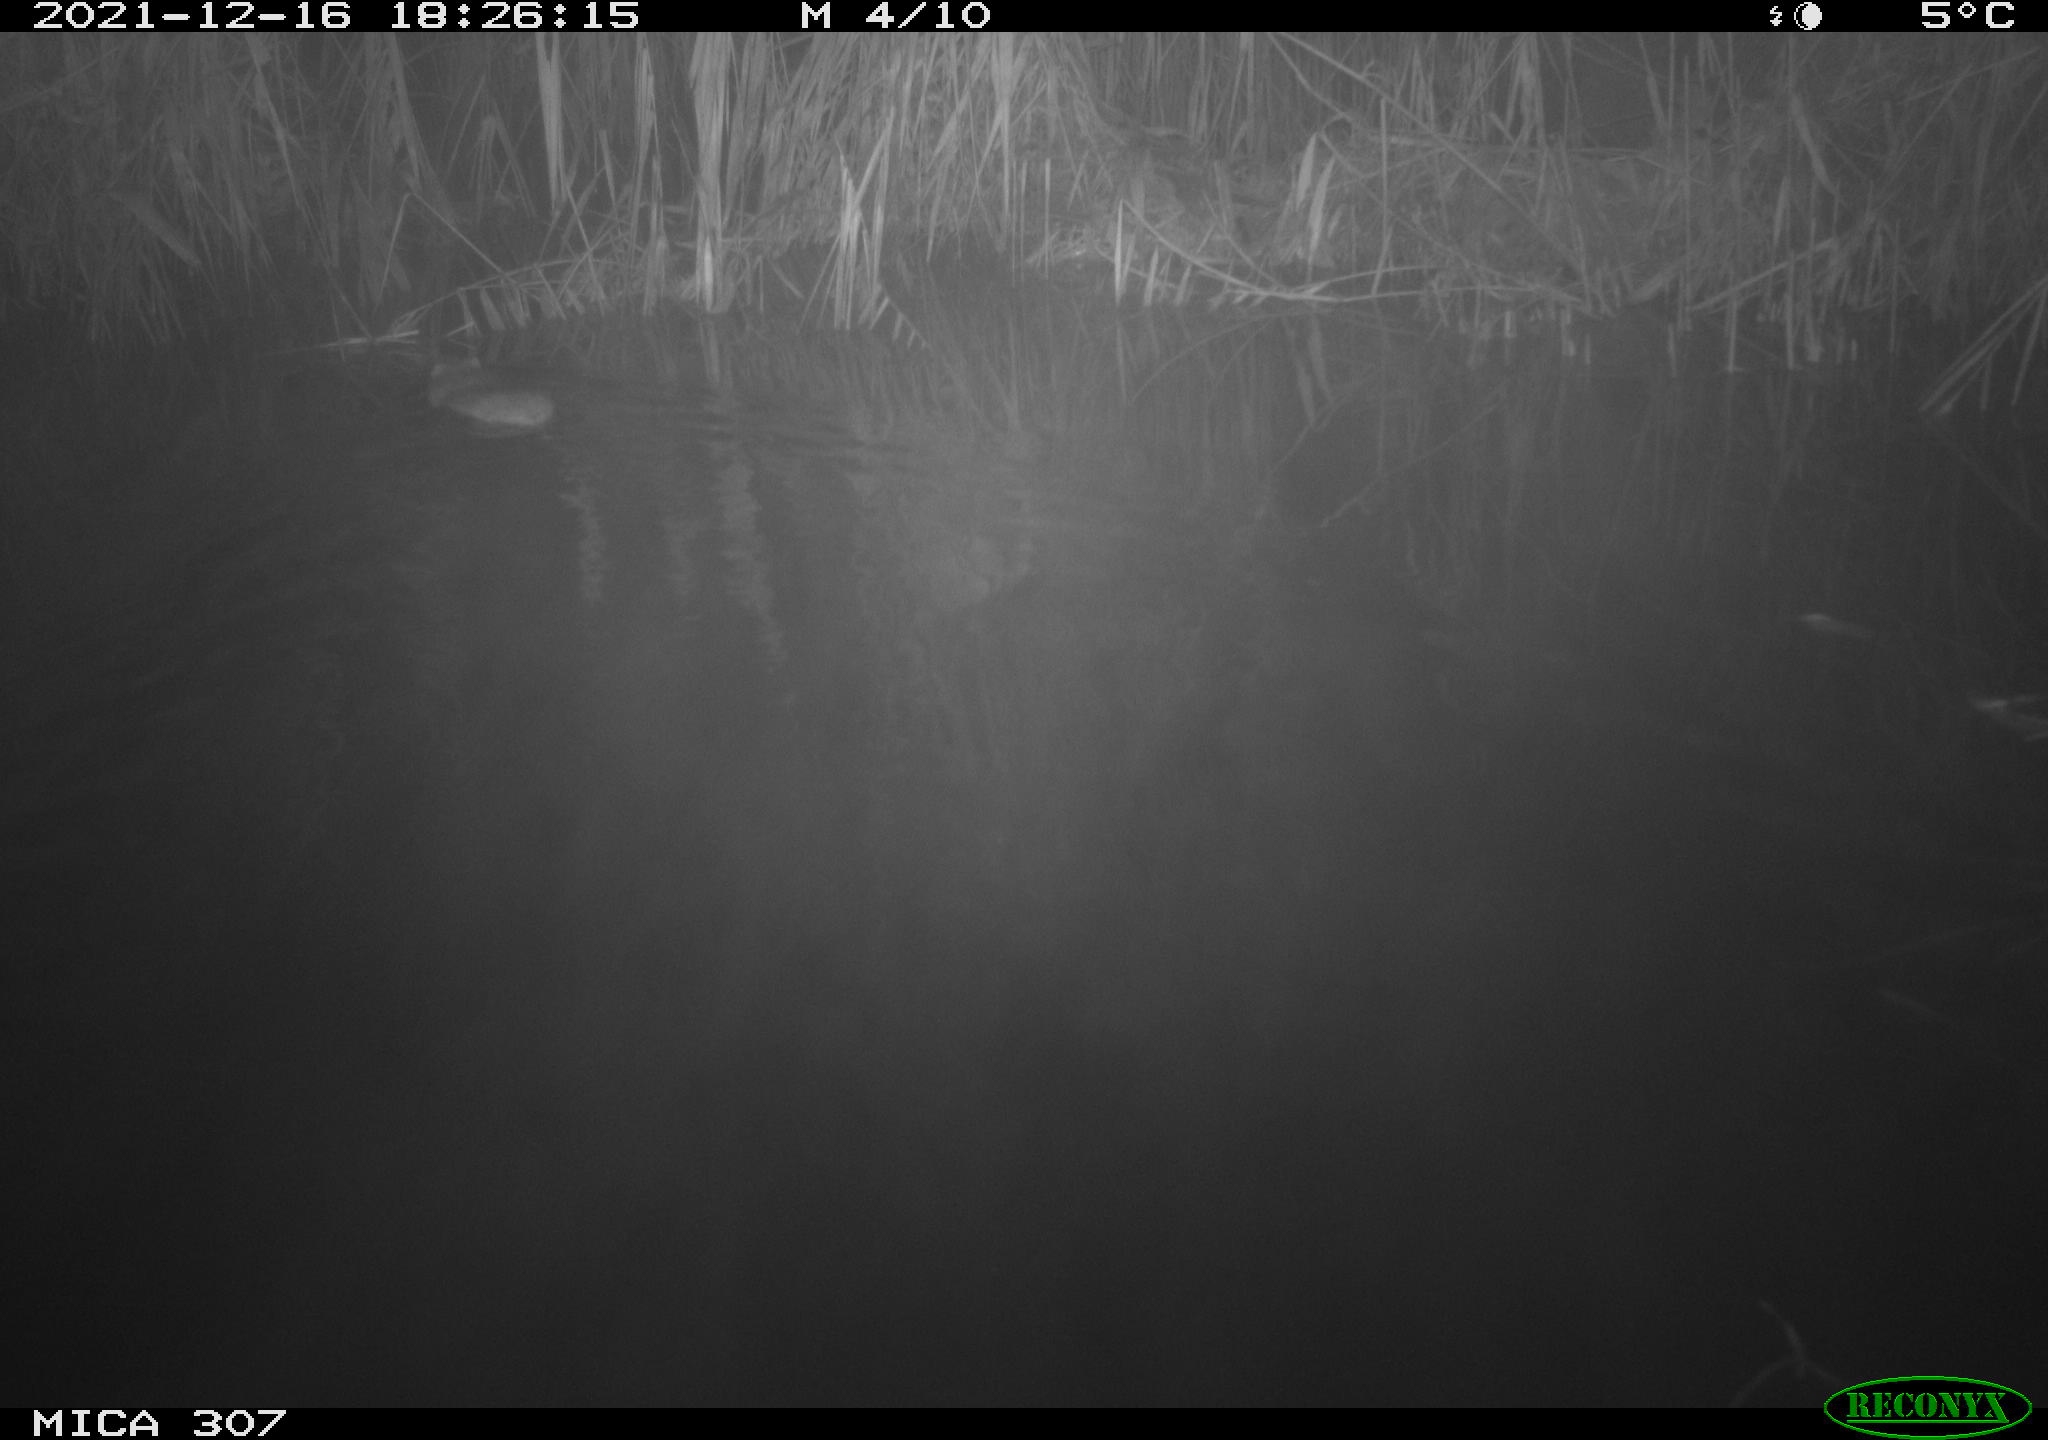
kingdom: Animalia
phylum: Chordata
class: Mammalia
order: Rodentia
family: Muridae
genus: Rattus
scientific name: Rattus norvegicus
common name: Brown rat
